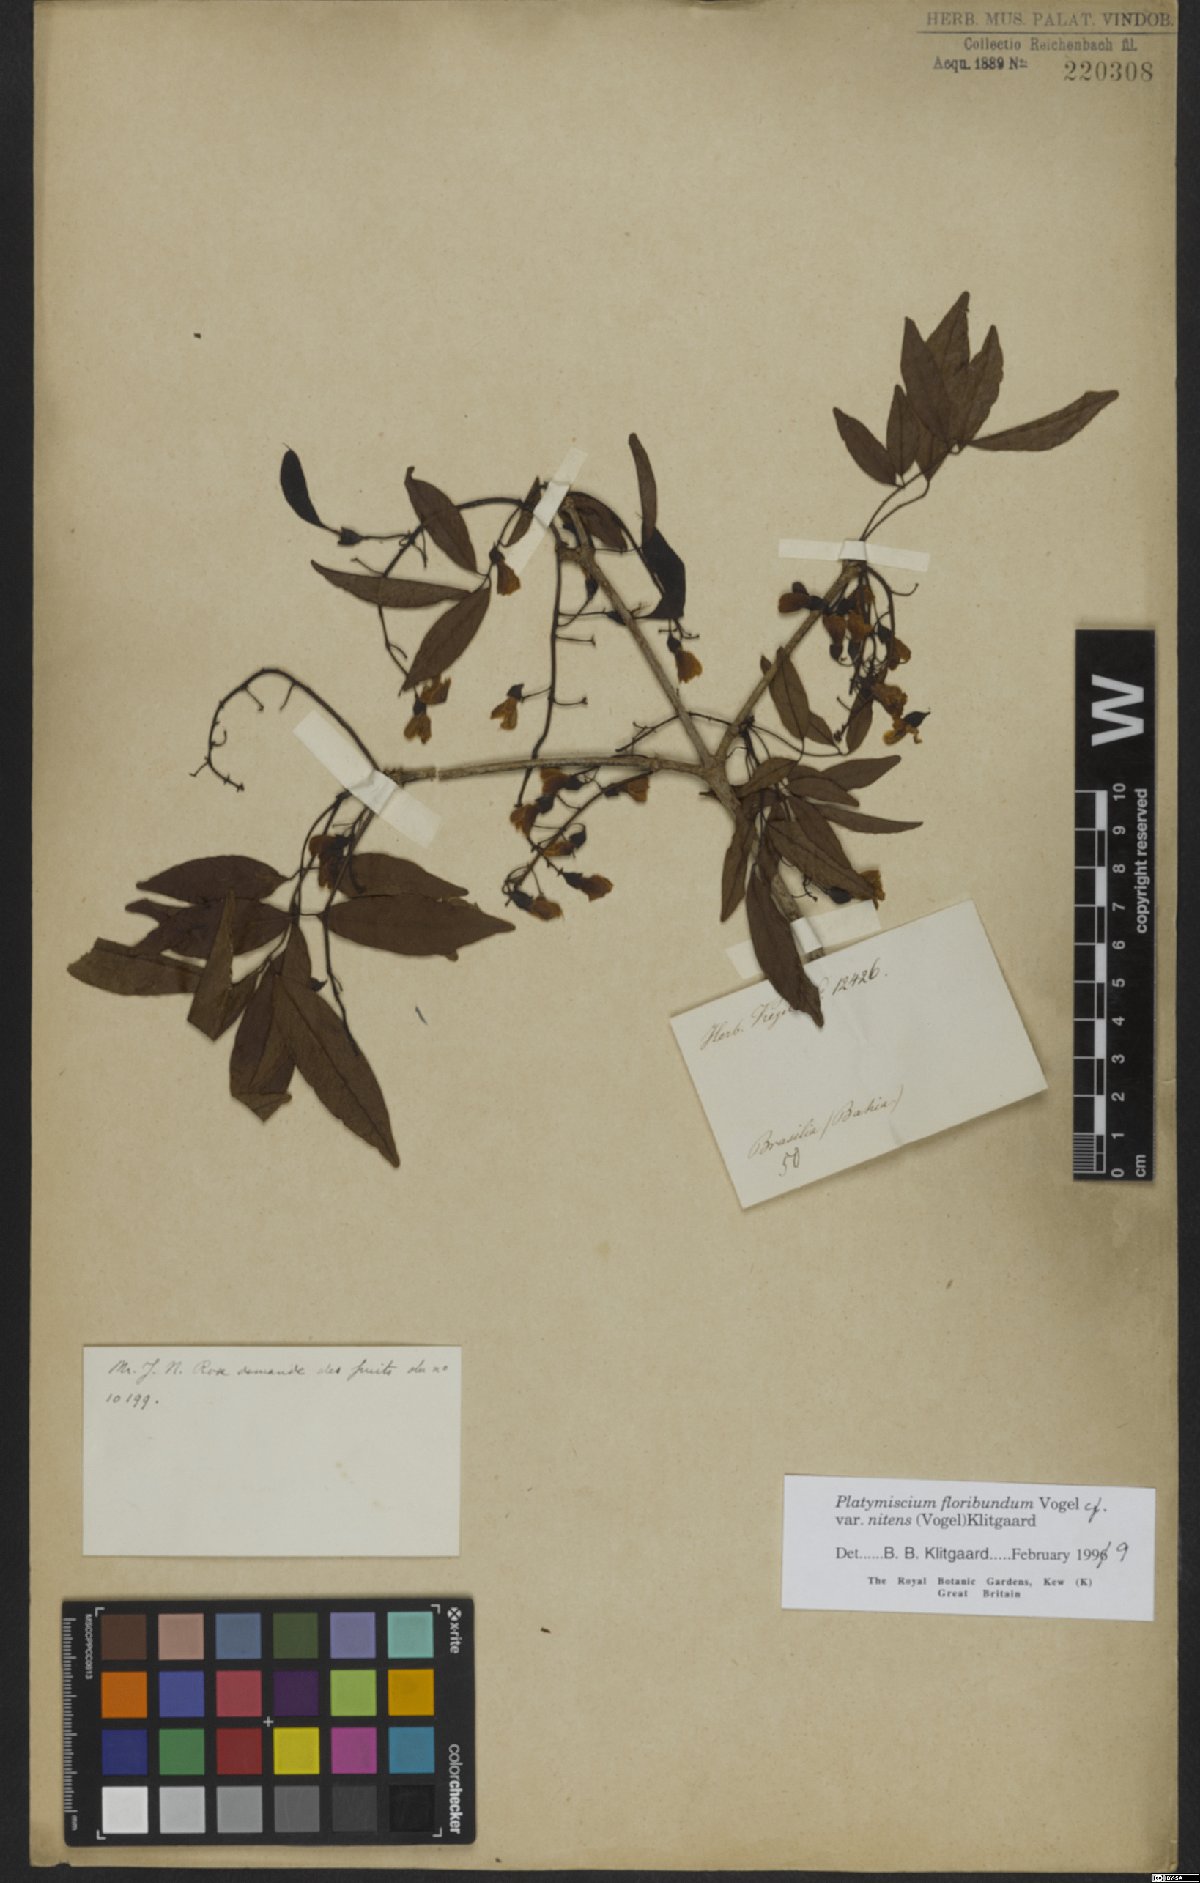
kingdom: Plantae
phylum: Tracheophyta
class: Magnoliopsida
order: Fabales
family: Fabaceae
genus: Platymiscium
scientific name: Platymiscium floribundum
